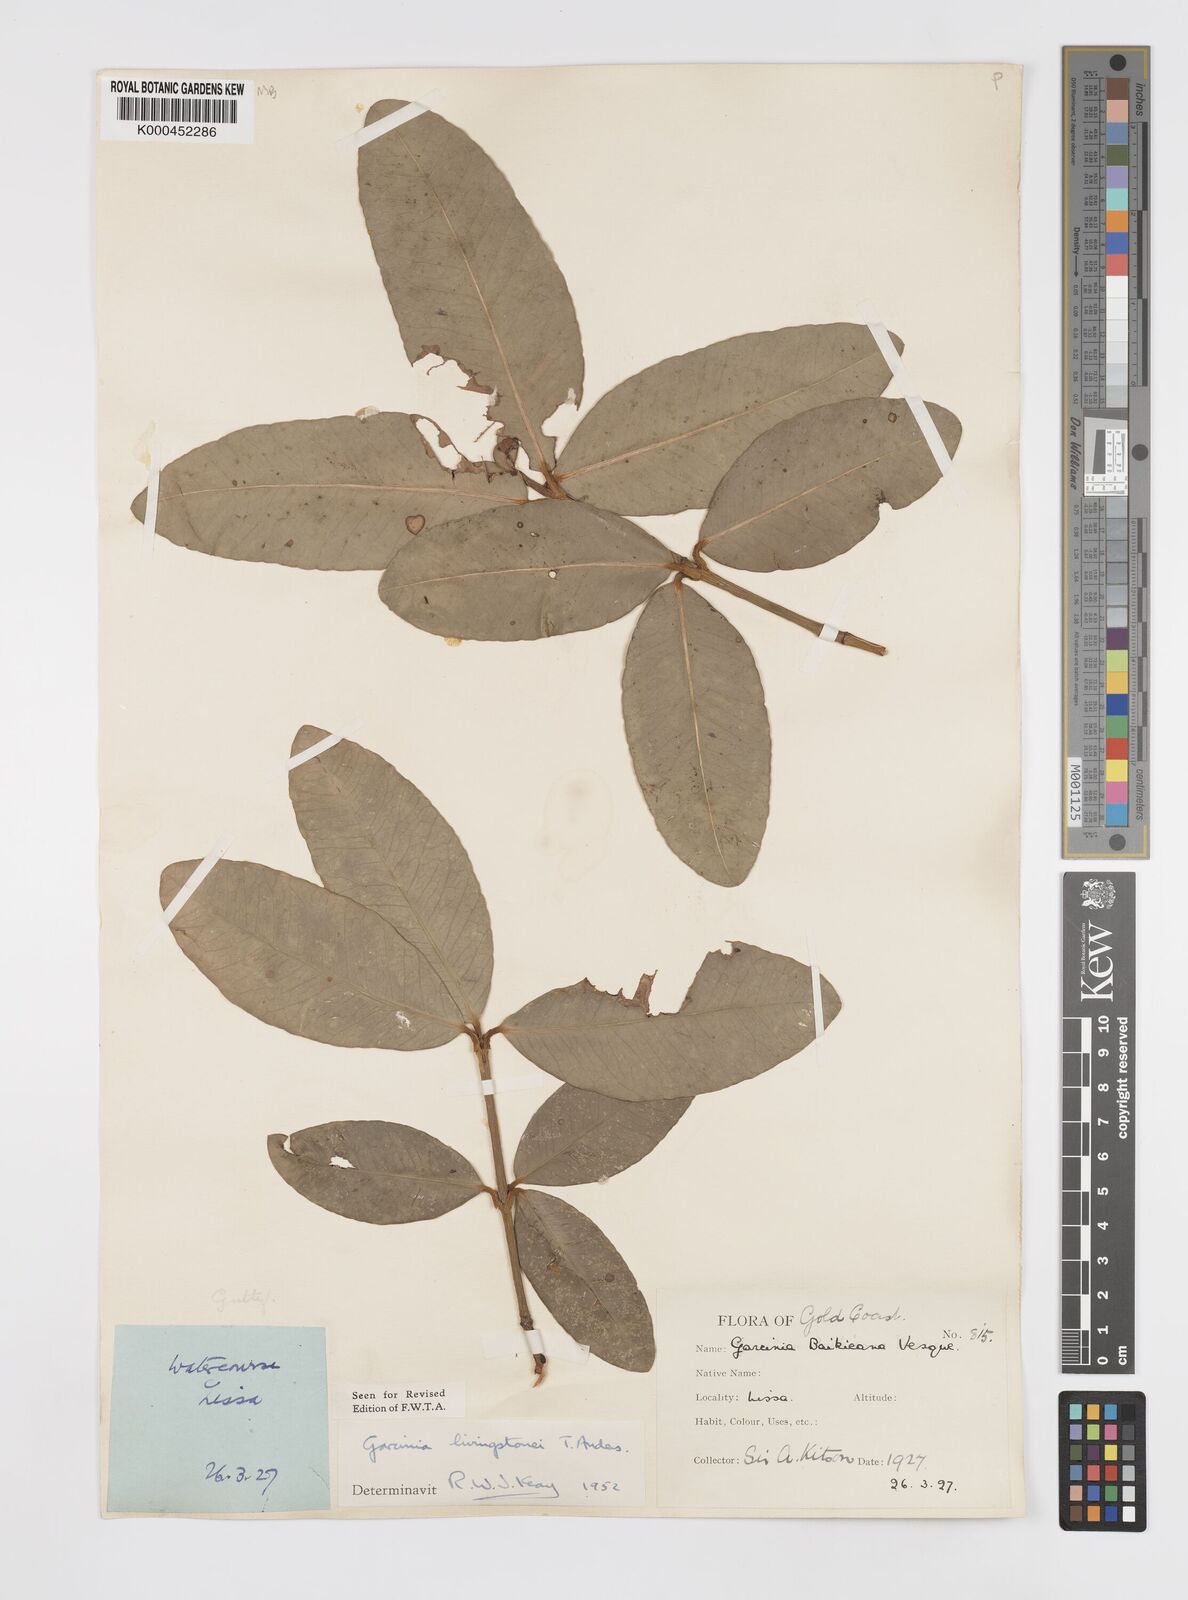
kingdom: Plantae
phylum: Tracheophyta
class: Magnoliopsida
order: Malpighiales
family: Clusiaceae
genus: Garcinia
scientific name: Garcinia livingstonei
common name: African mangosteen
